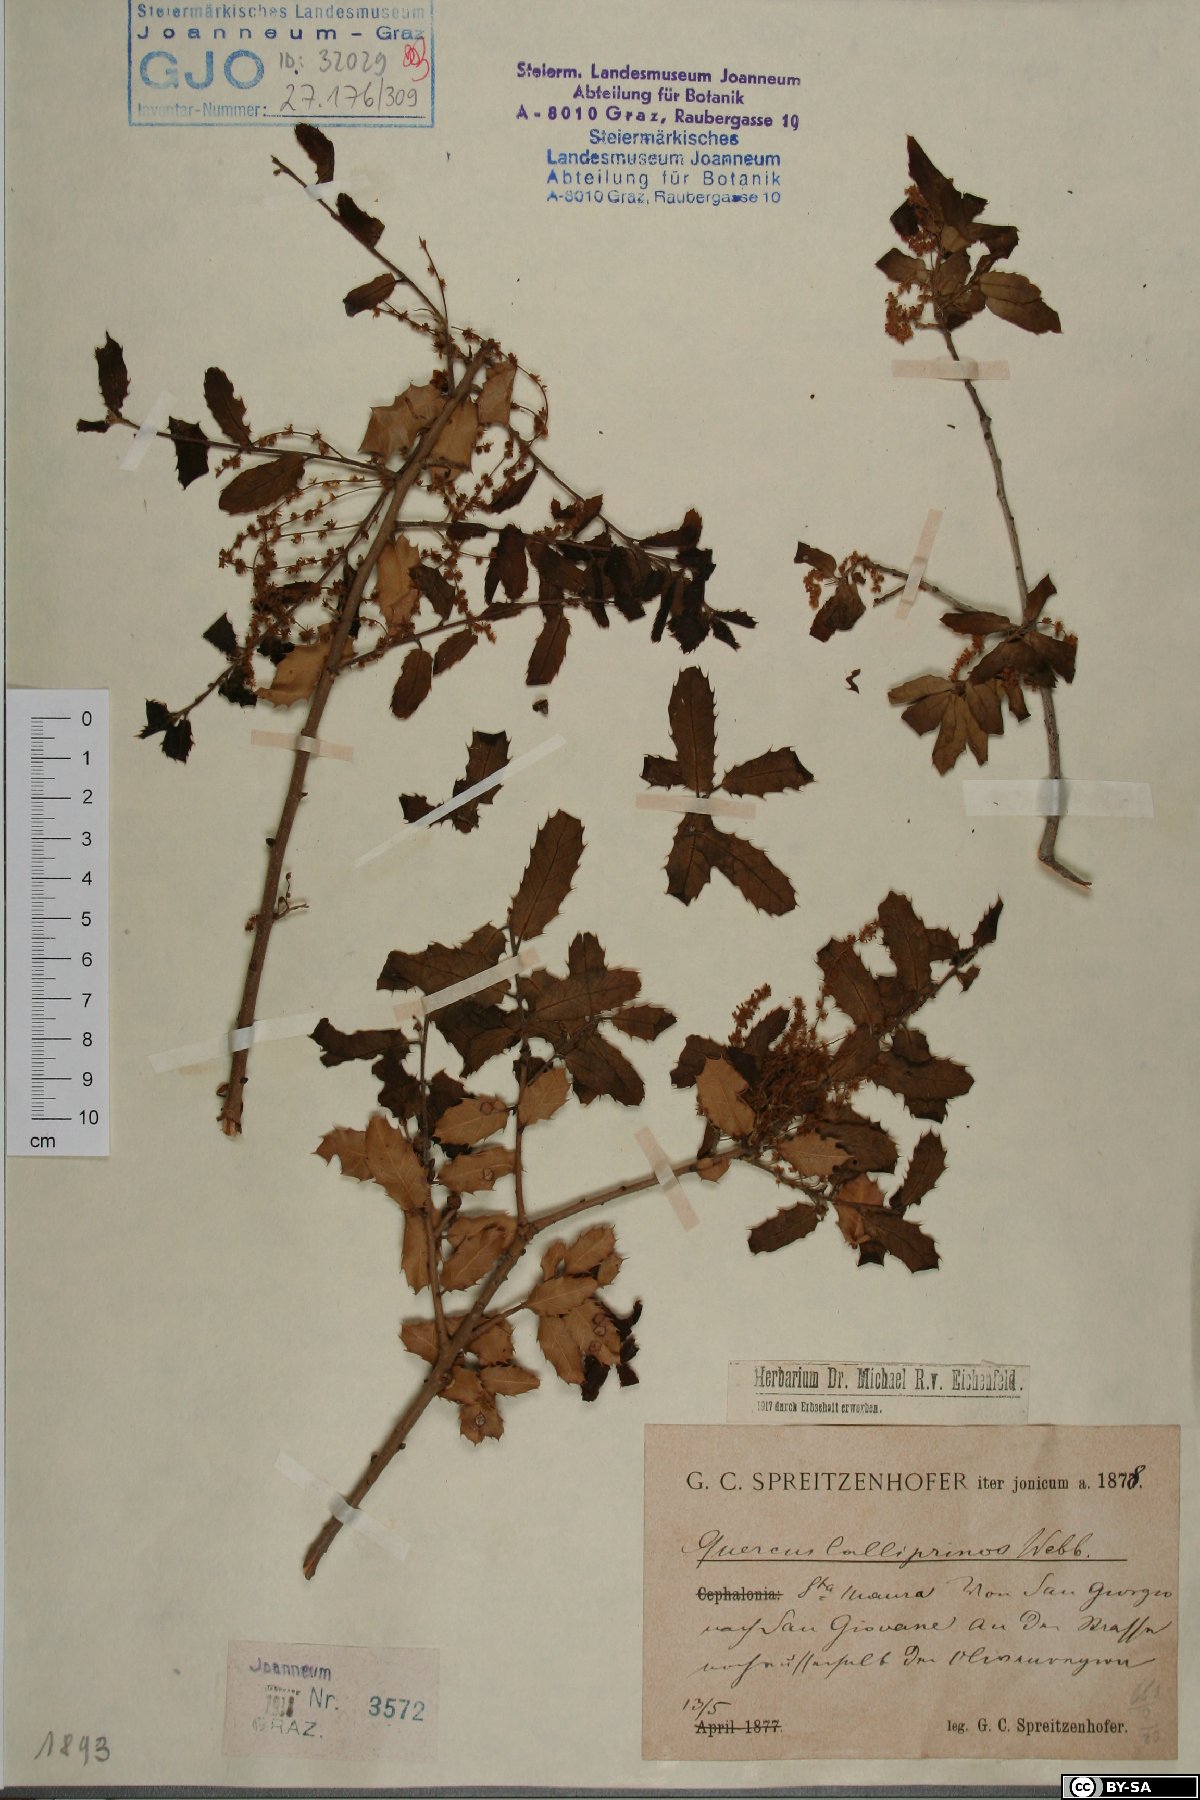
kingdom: Plantae
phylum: Tracheophyta
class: Magnoliopsida
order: Fagales
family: Fagaceae
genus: Quercus
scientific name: Quercus coccifera
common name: Kermes oak
